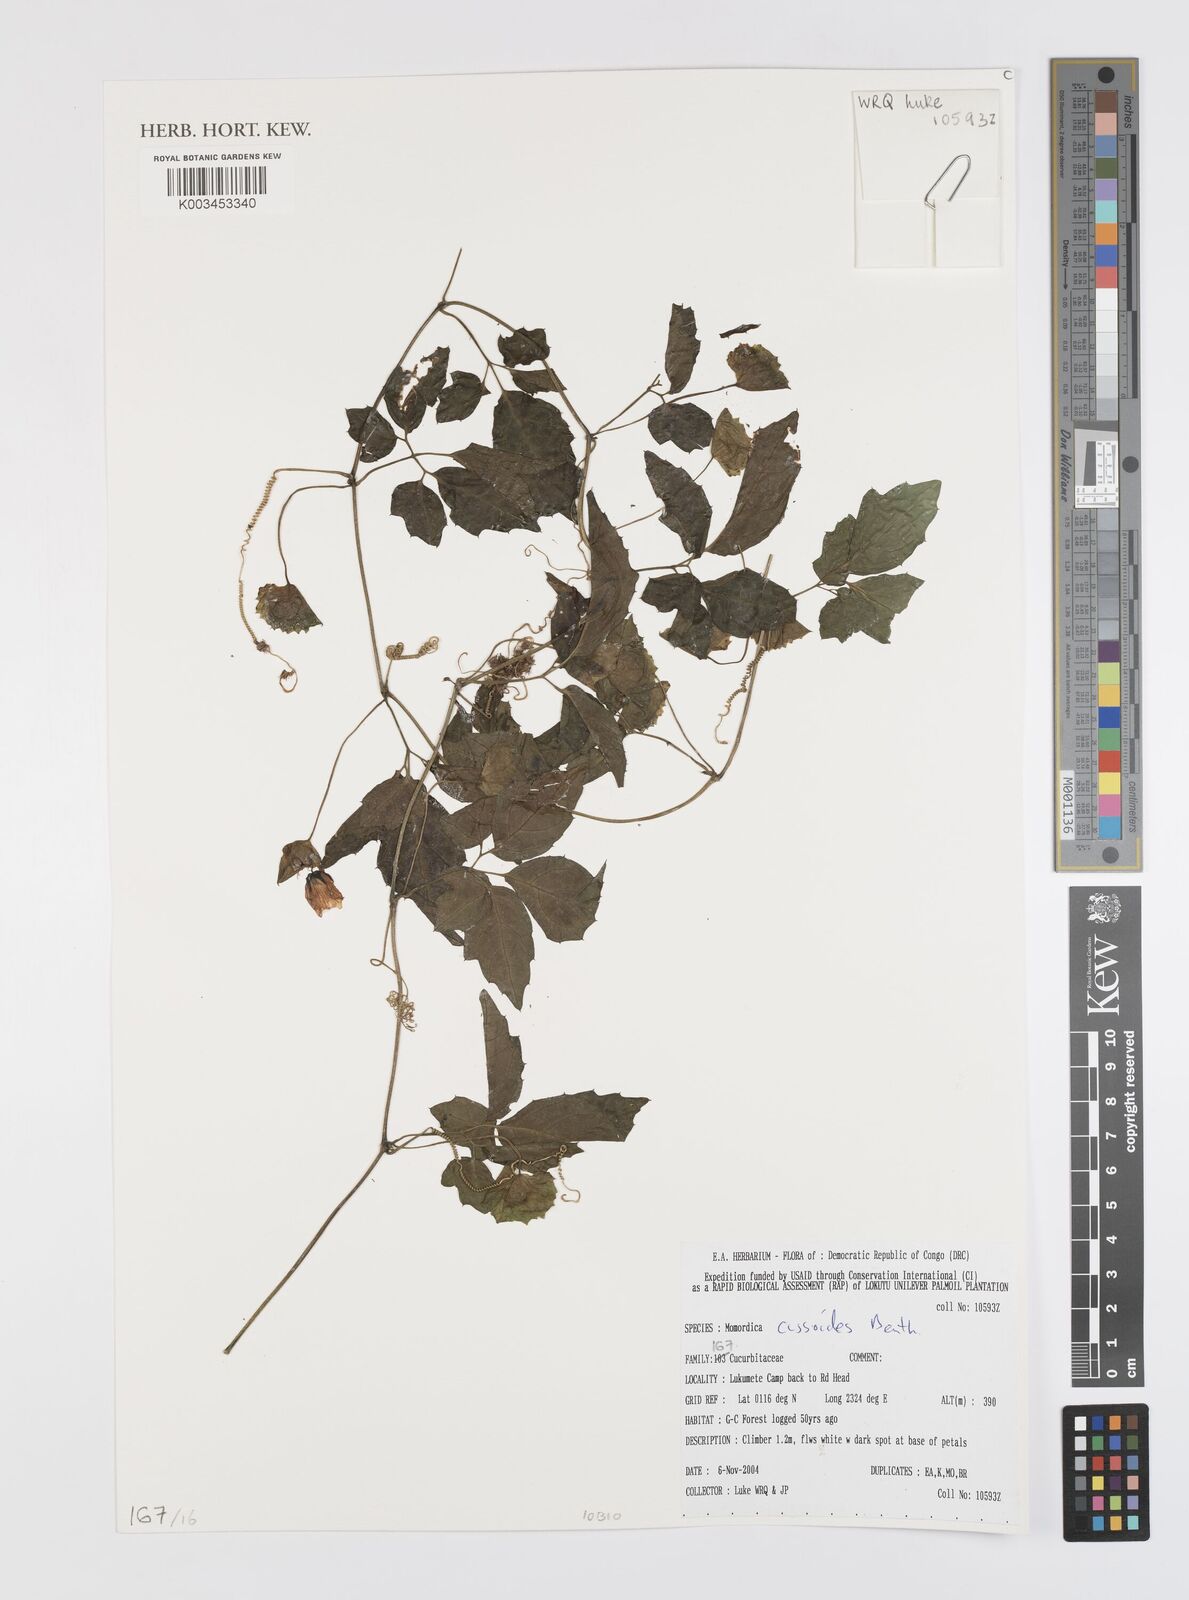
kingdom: Plantae
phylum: Tracheophyta
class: Magnoliopsida
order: Cucurbitales
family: Cucurbitaceae
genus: Momordica
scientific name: Momordica cissoides
